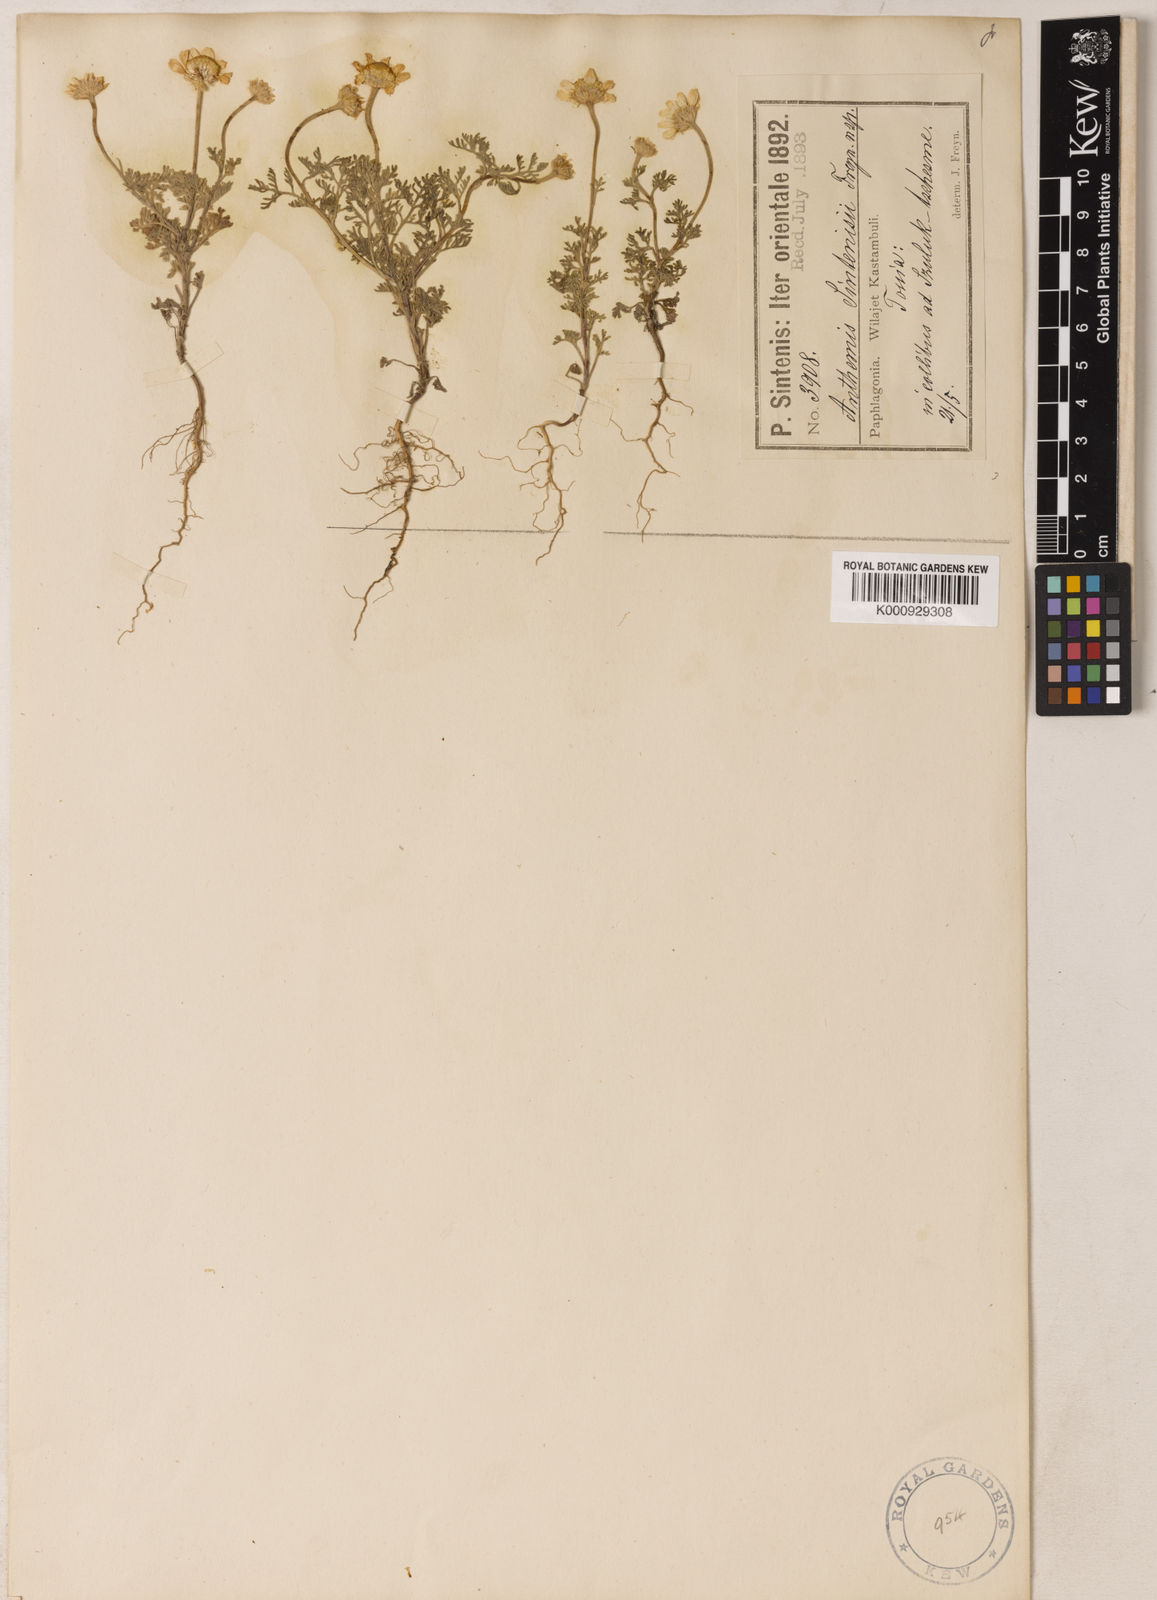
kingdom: Plantae
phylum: Tracheophyta
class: Magnoliopsida
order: Asterales
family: Asteraceae
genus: Anthemis
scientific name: Anthemis candidissima
